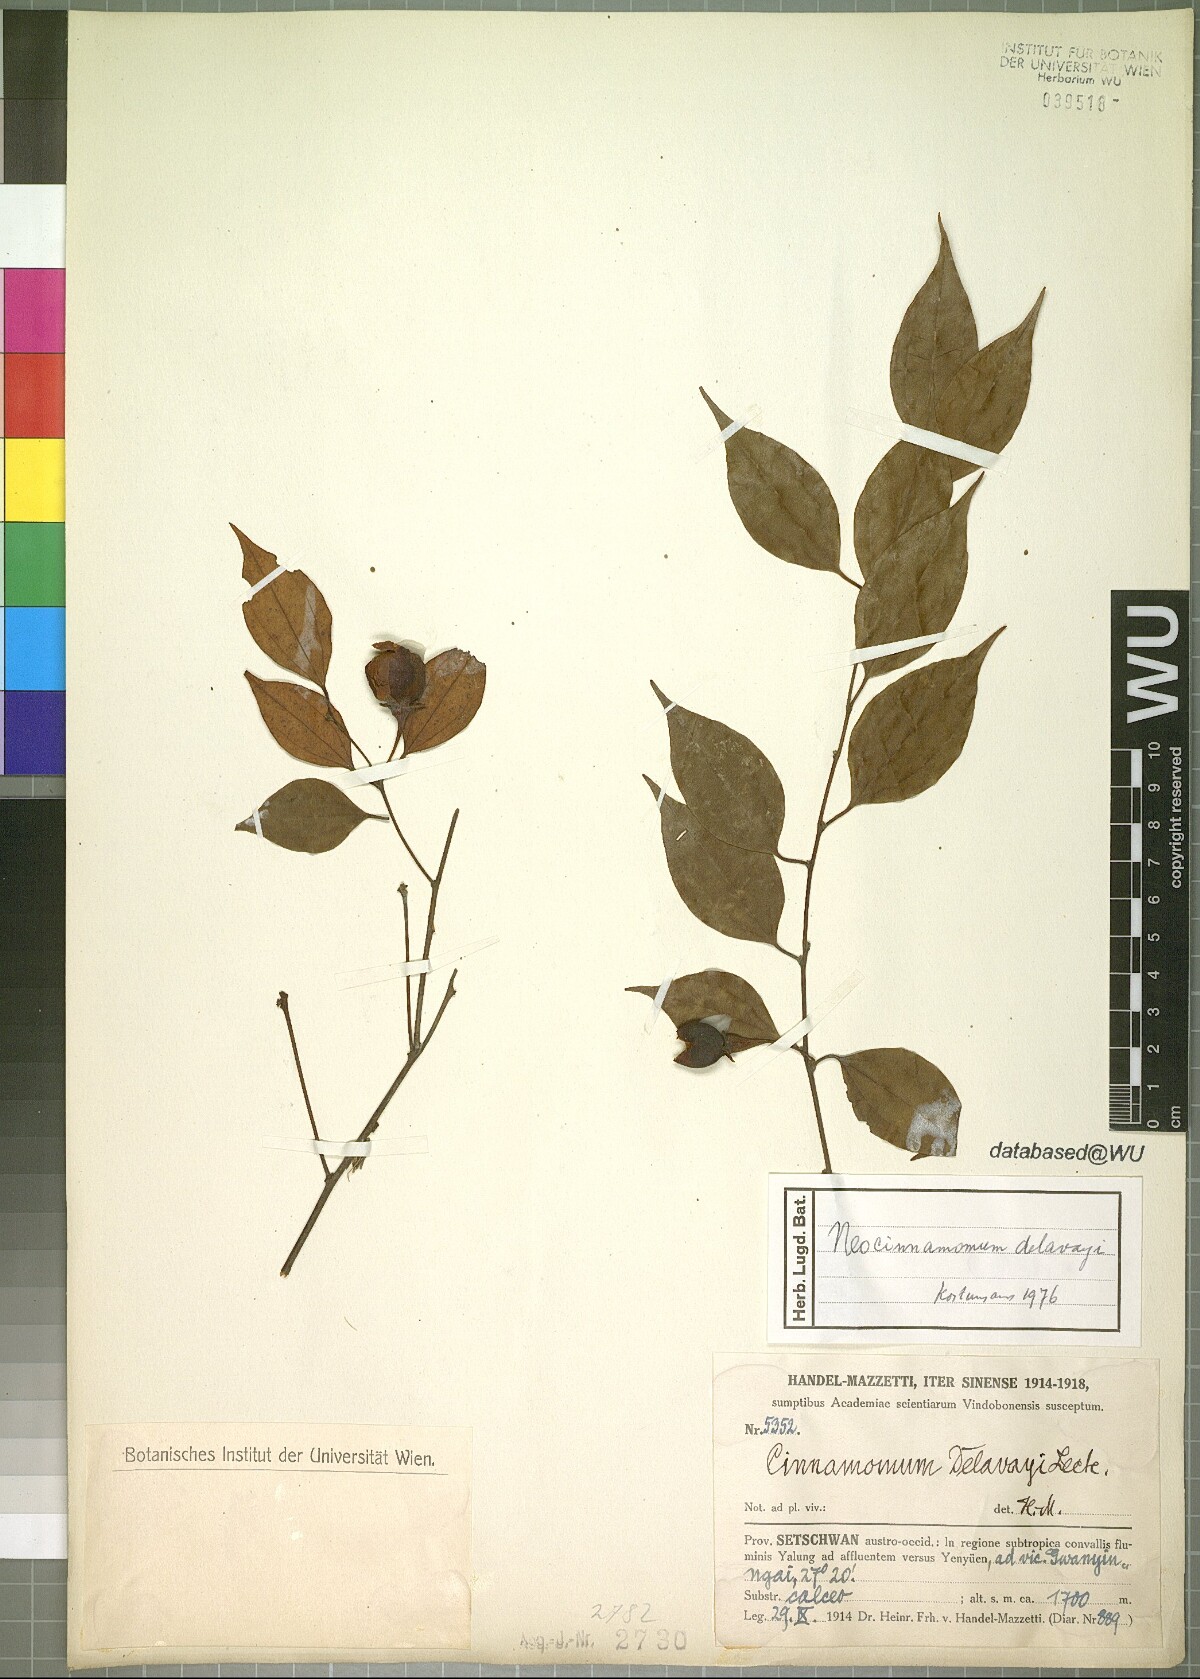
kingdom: Plantae
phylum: Tracheophyta
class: Magnoliopsida
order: Laurales
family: Lauraceae
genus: Neocinnamomum
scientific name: Neocinnamomum delavayi
